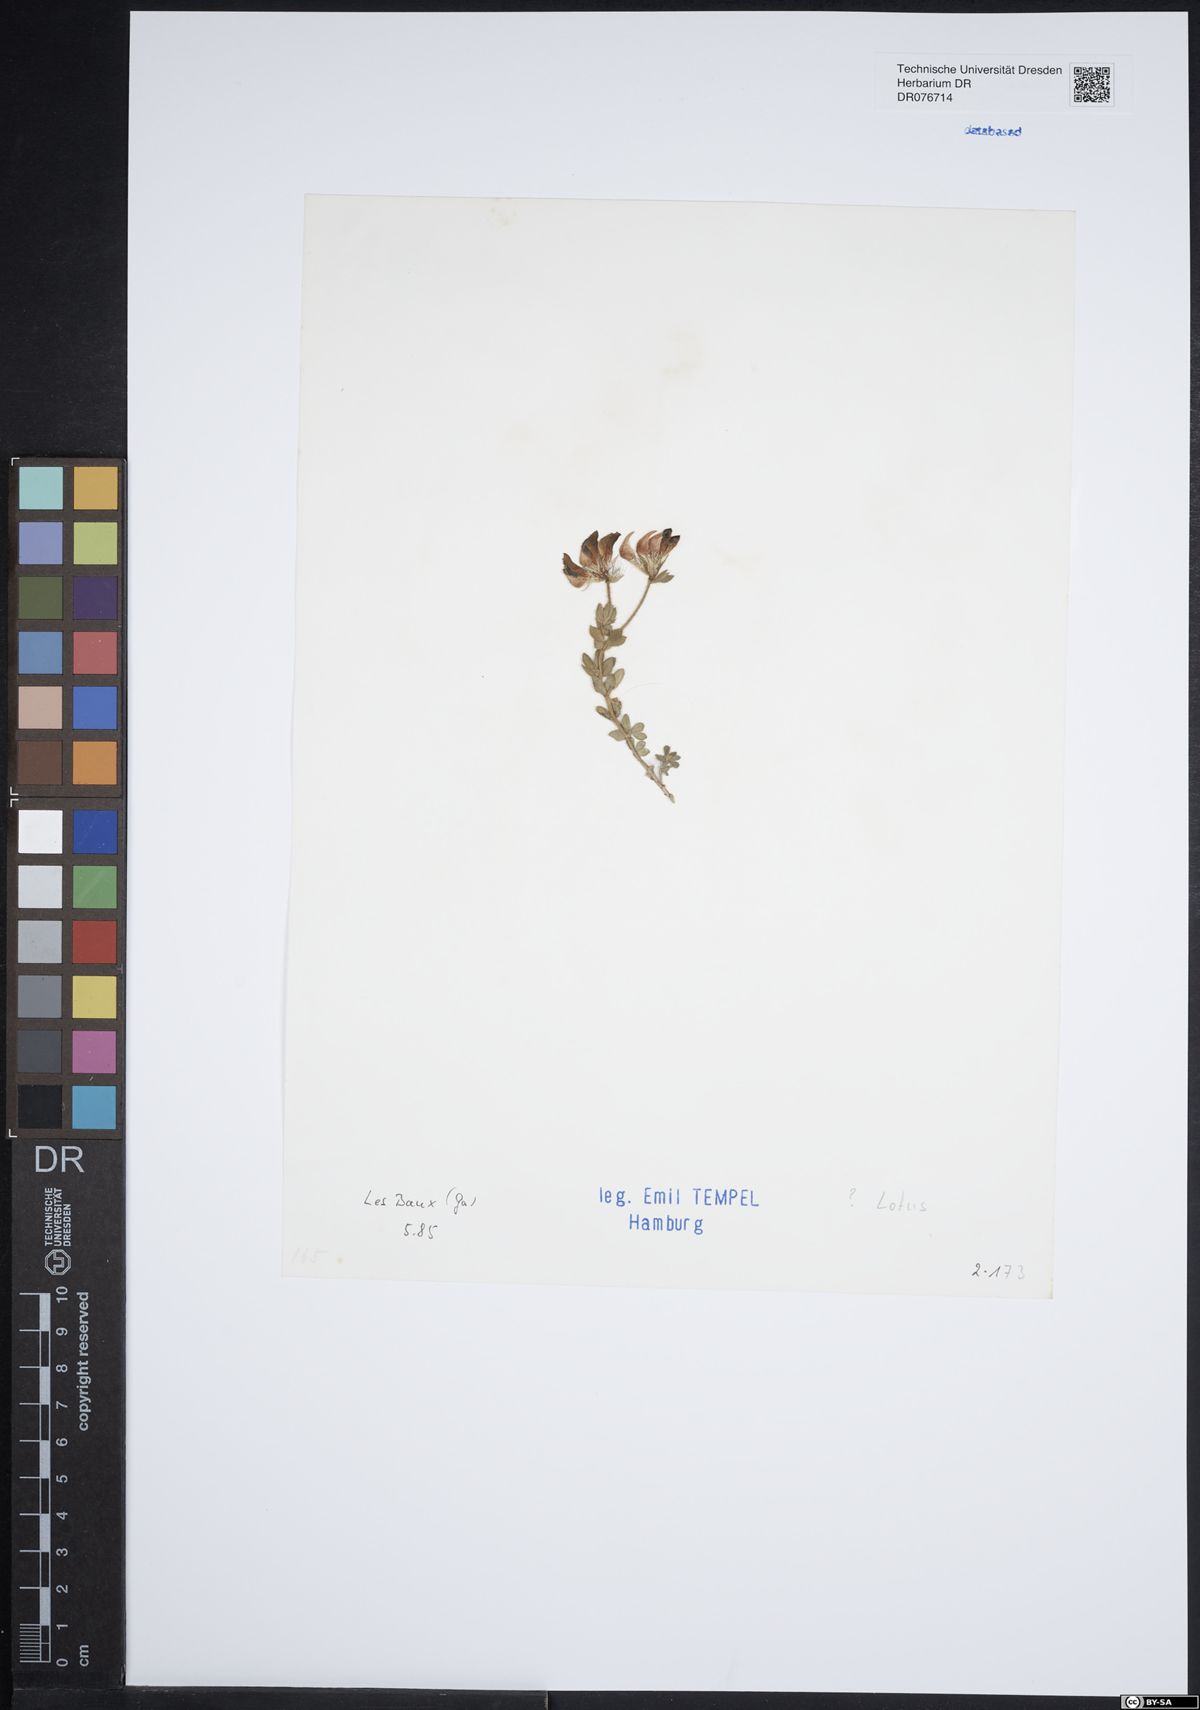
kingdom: Plantae
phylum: Tracheophyta
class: Magnoliopsida
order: Fabales
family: Fabaceae
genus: Lotus
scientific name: Lotus
